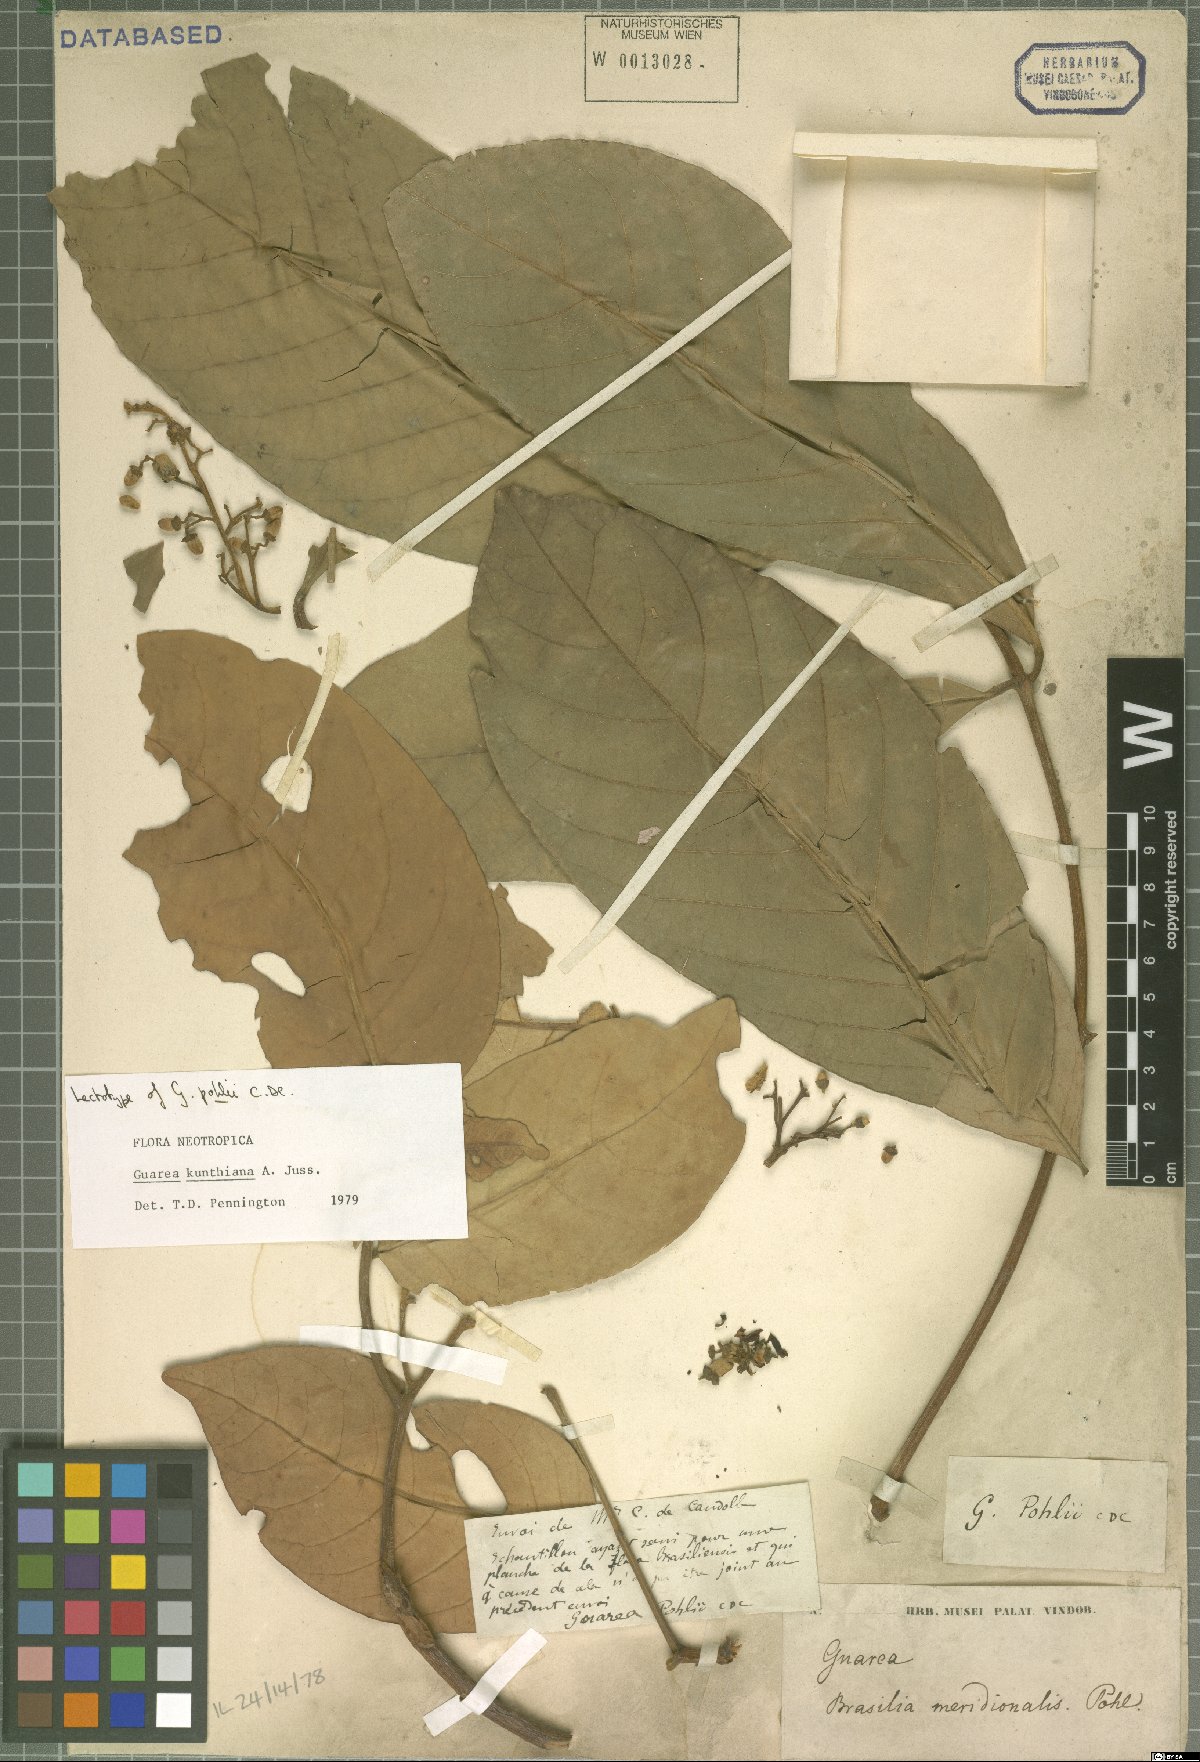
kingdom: Plantae
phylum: Tracheophyta
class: Magnoliopsida
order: Sapindales
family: Meliaceae
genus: Guarea
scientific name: Guarea kunthiana
